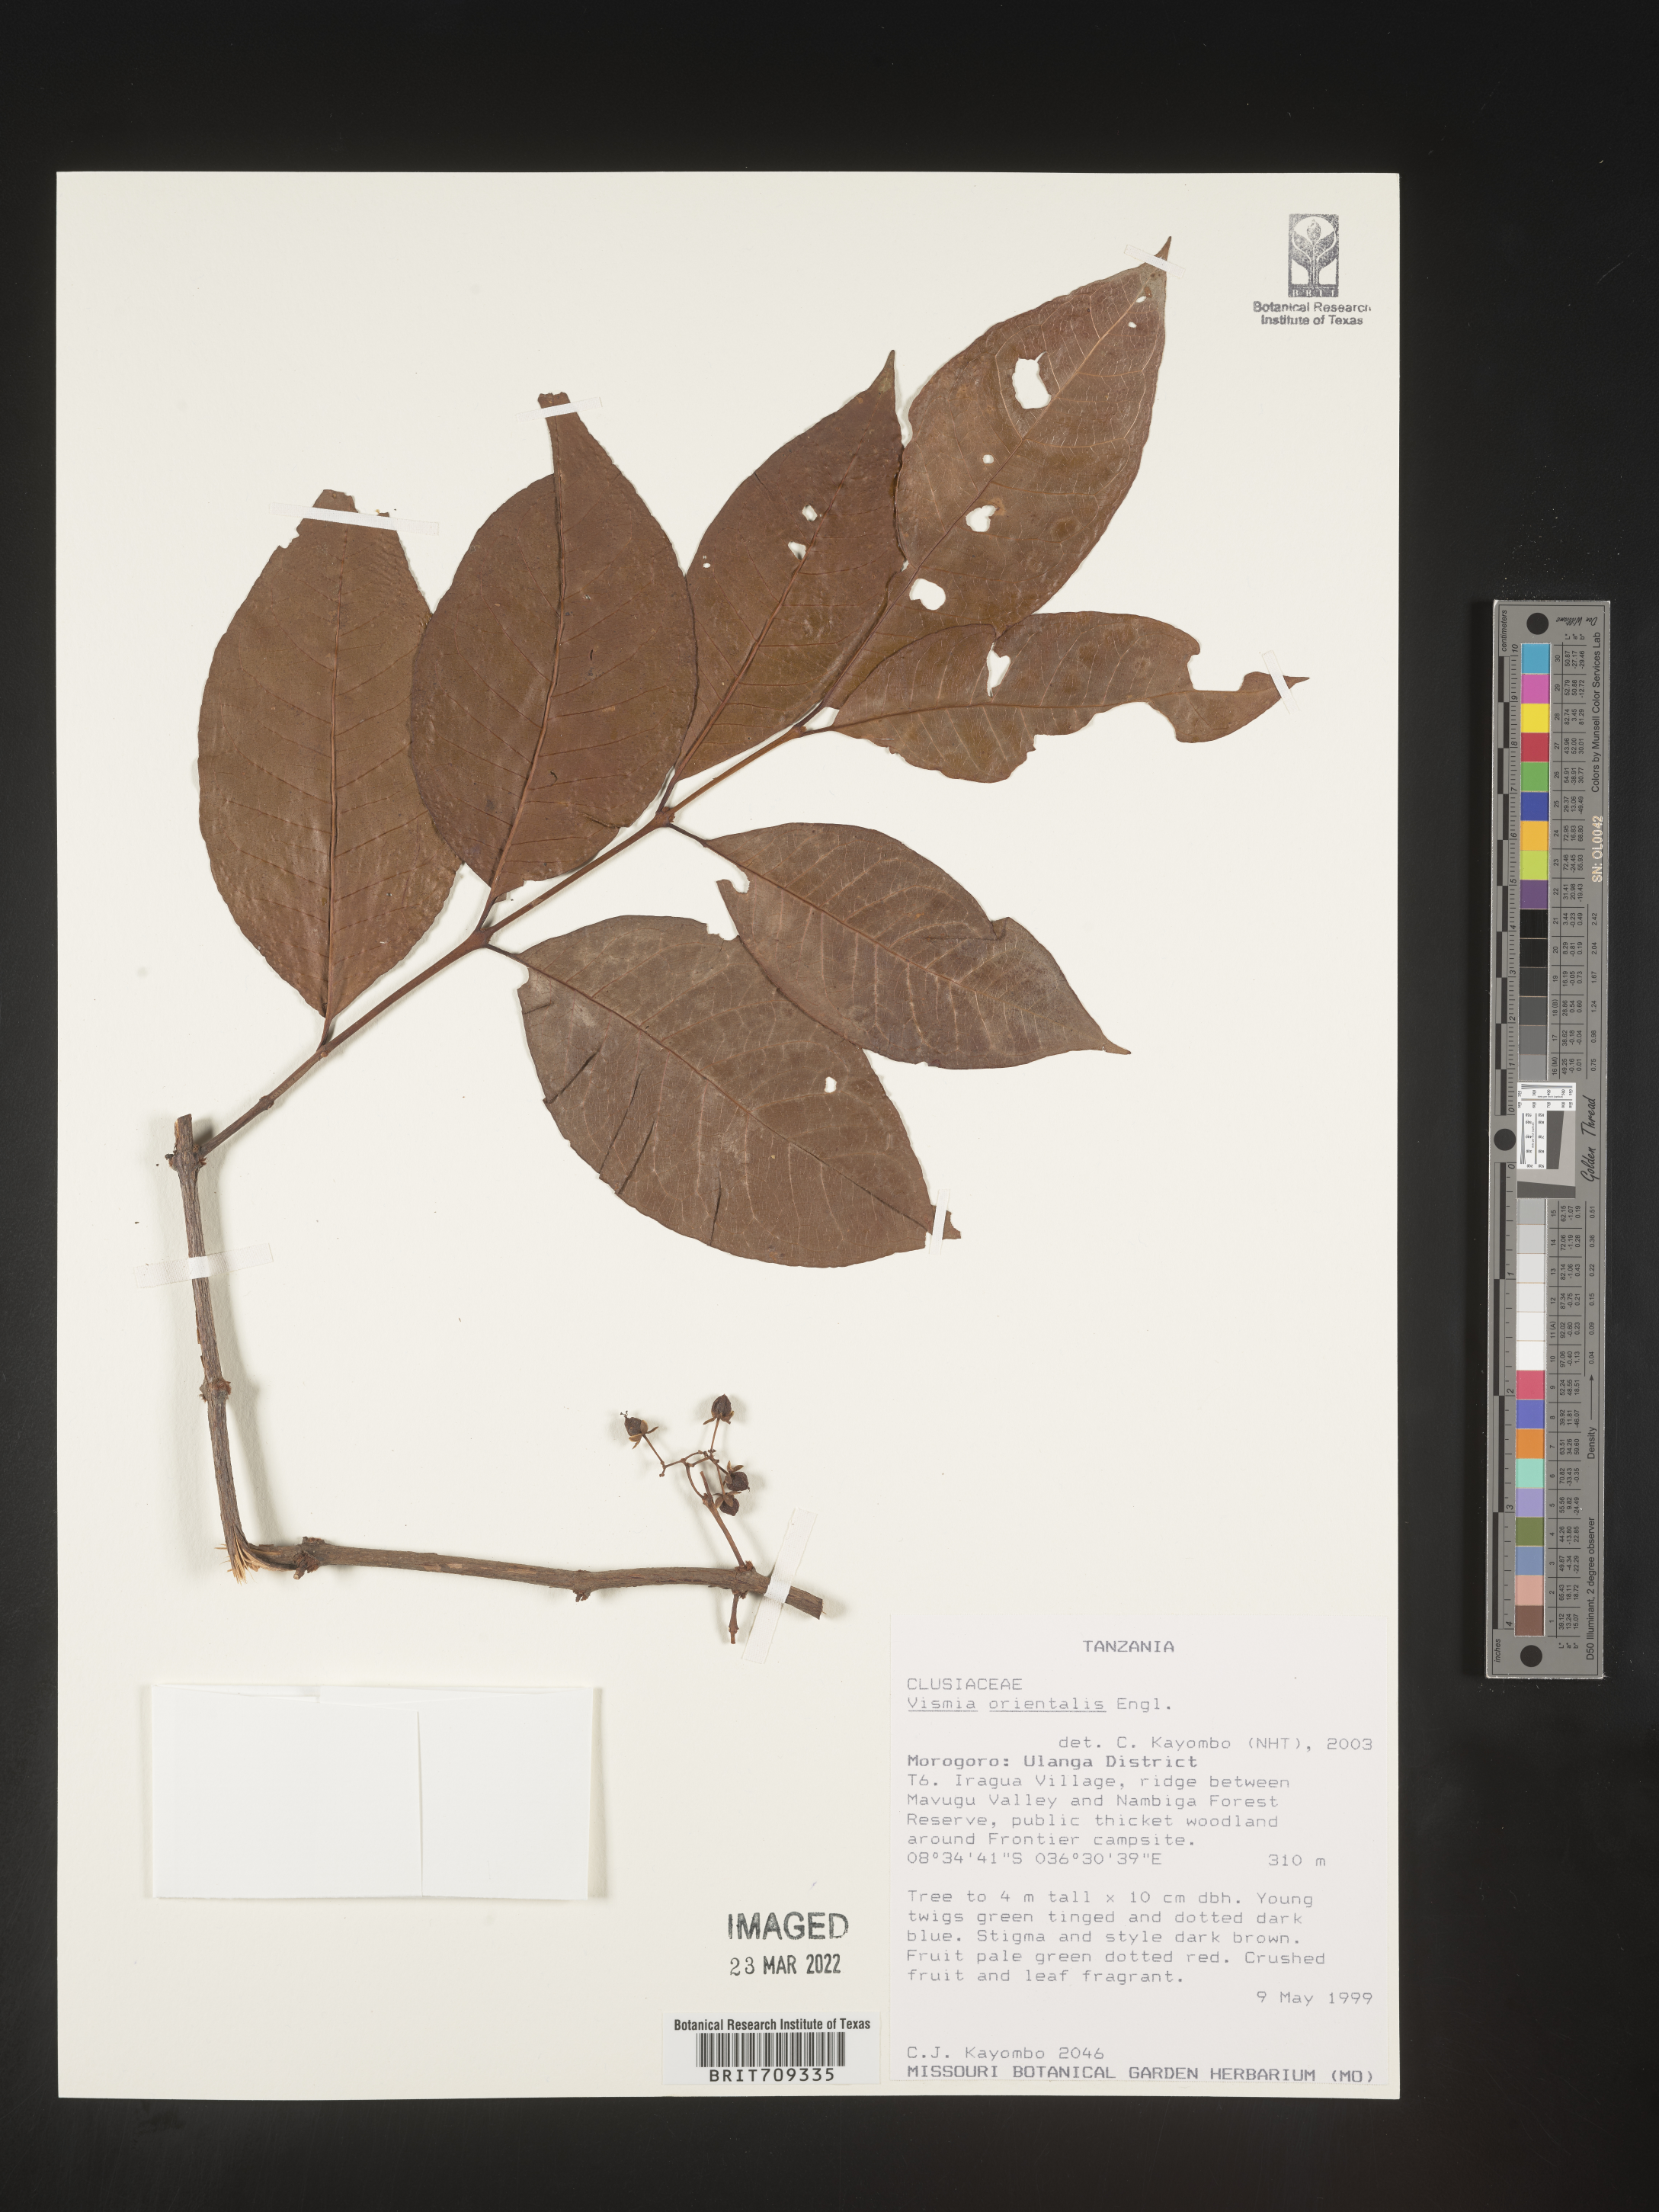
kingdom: Plantae
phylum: Tracheophyta
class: Magnoliopsida
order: Malpighiales
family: Hypericaceae
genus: Vismia
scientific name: Vismia
